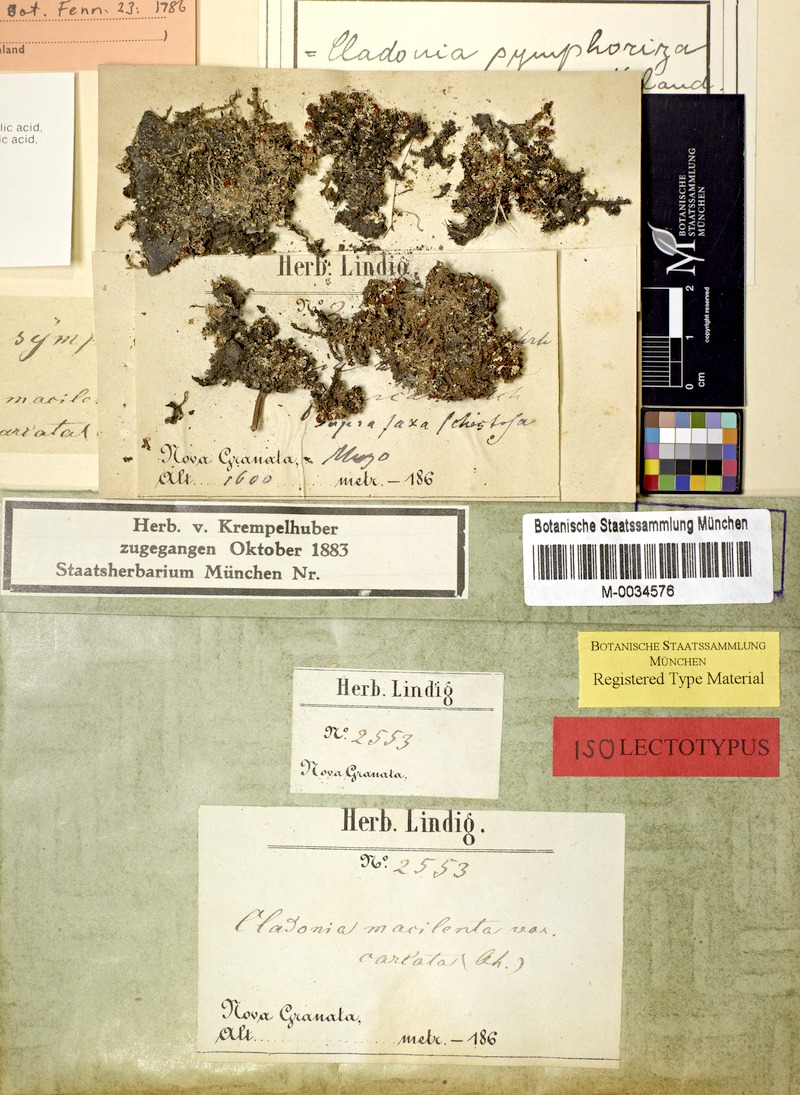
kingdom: Fungi
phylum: Ascomycota
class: Lecanoromycetes
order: Lecanorales
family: Cladoniaceae
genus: Cladonia
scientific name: Cladonia symphoriza
